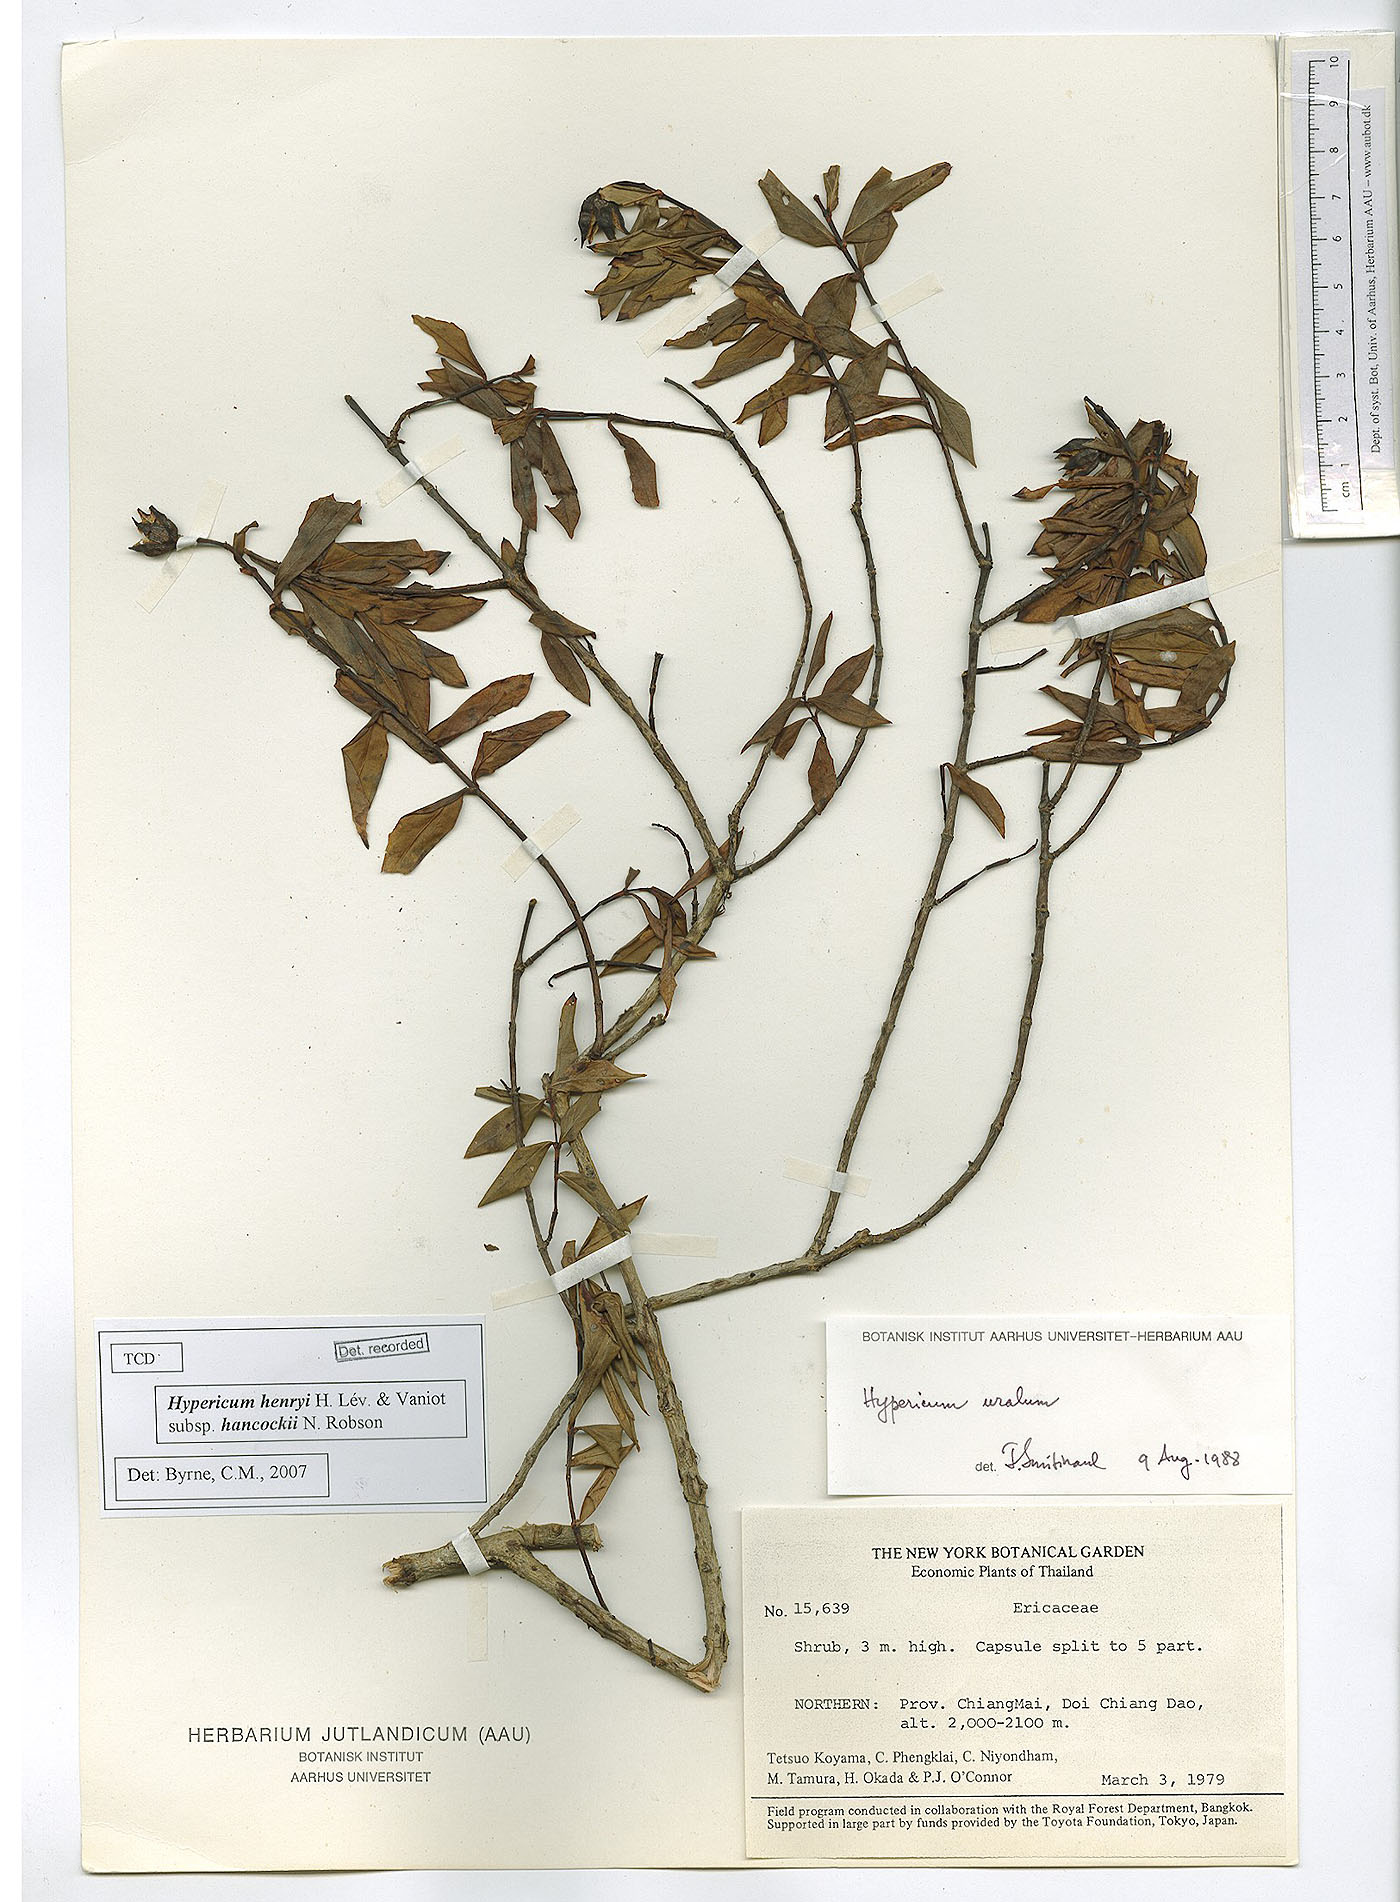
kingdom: Plantae
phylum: Tracheophyta
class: Magnoliopsida
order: Malpighiales
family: Hypericaceae
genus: Hypericum
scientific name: Hypericum henryi
